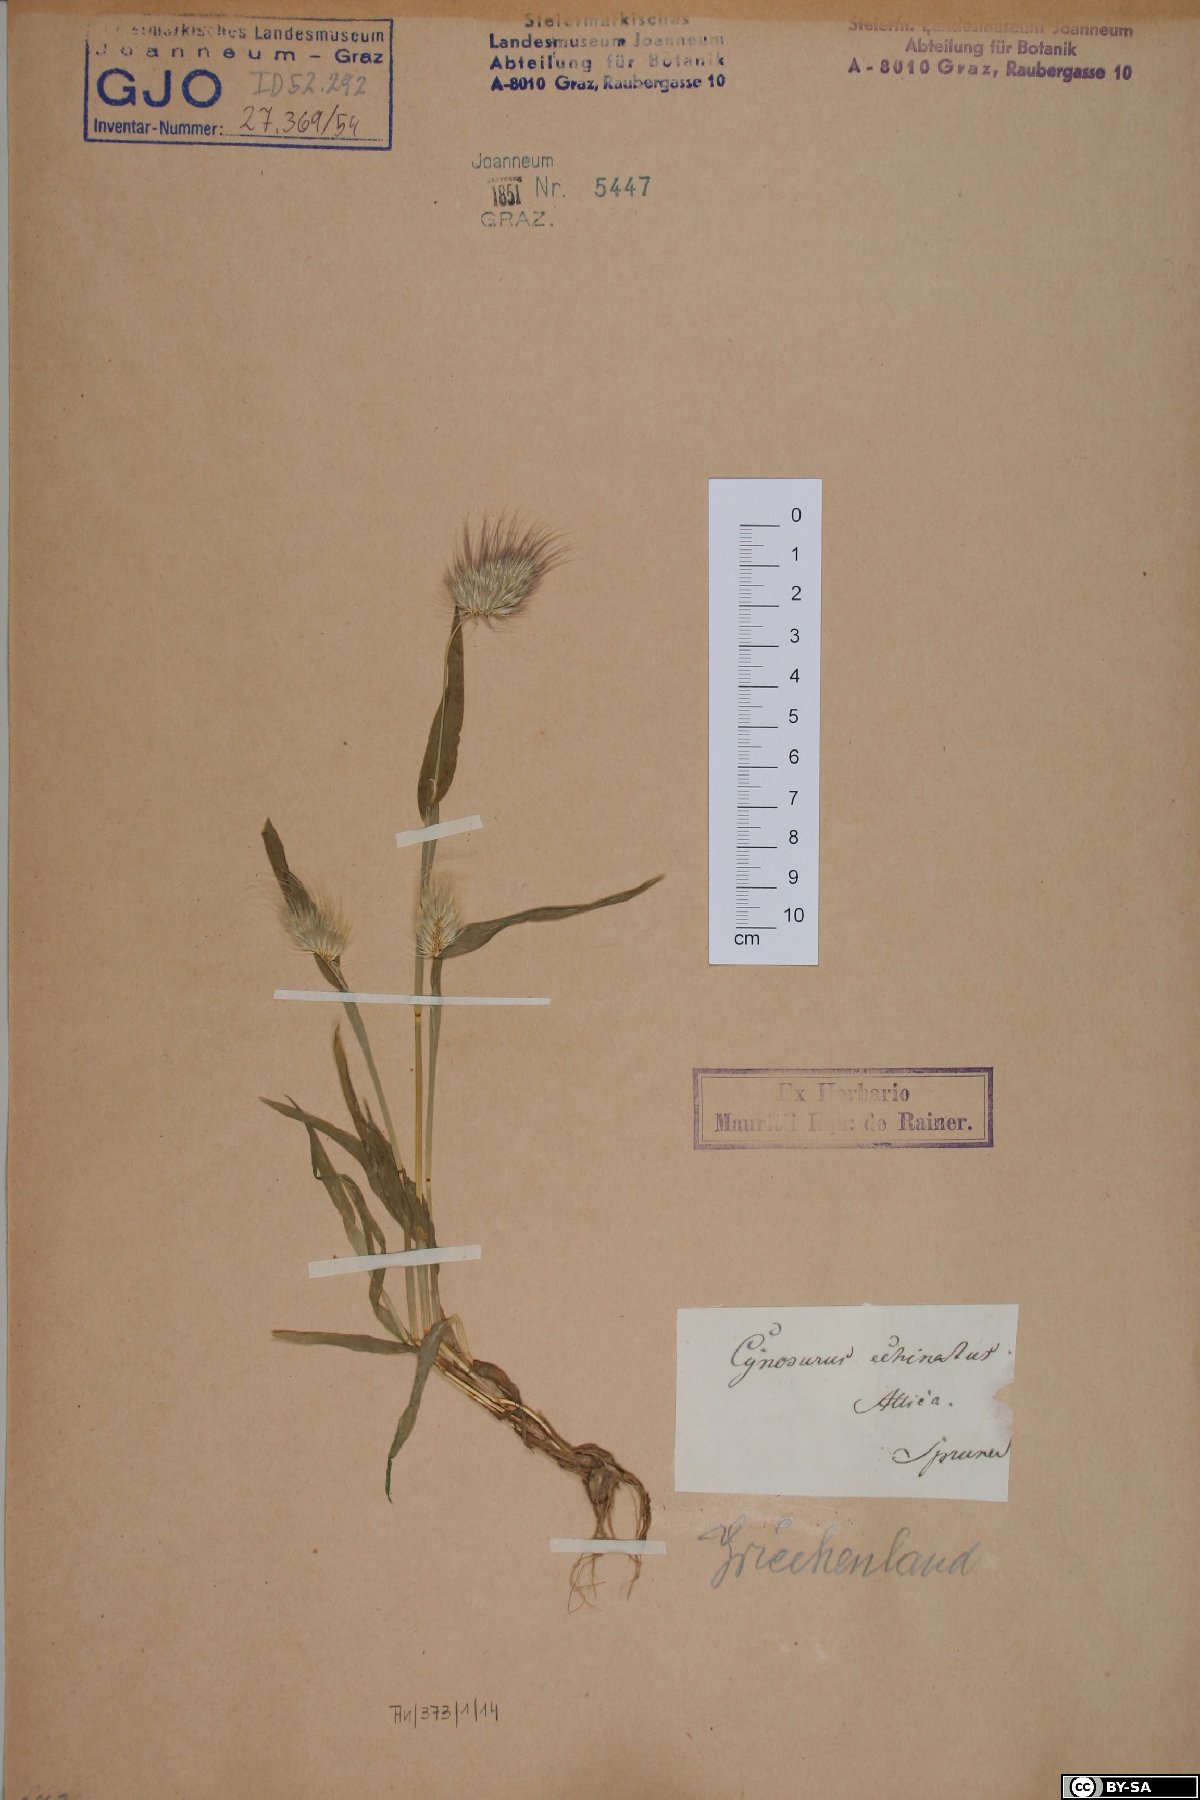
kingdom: Plantae
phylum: Tracheophyta
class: Liliopsida
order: Poales
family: Poaceae
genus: Cynosurus
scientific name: Cynosurus echinatus
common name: Rough dog's-tail
